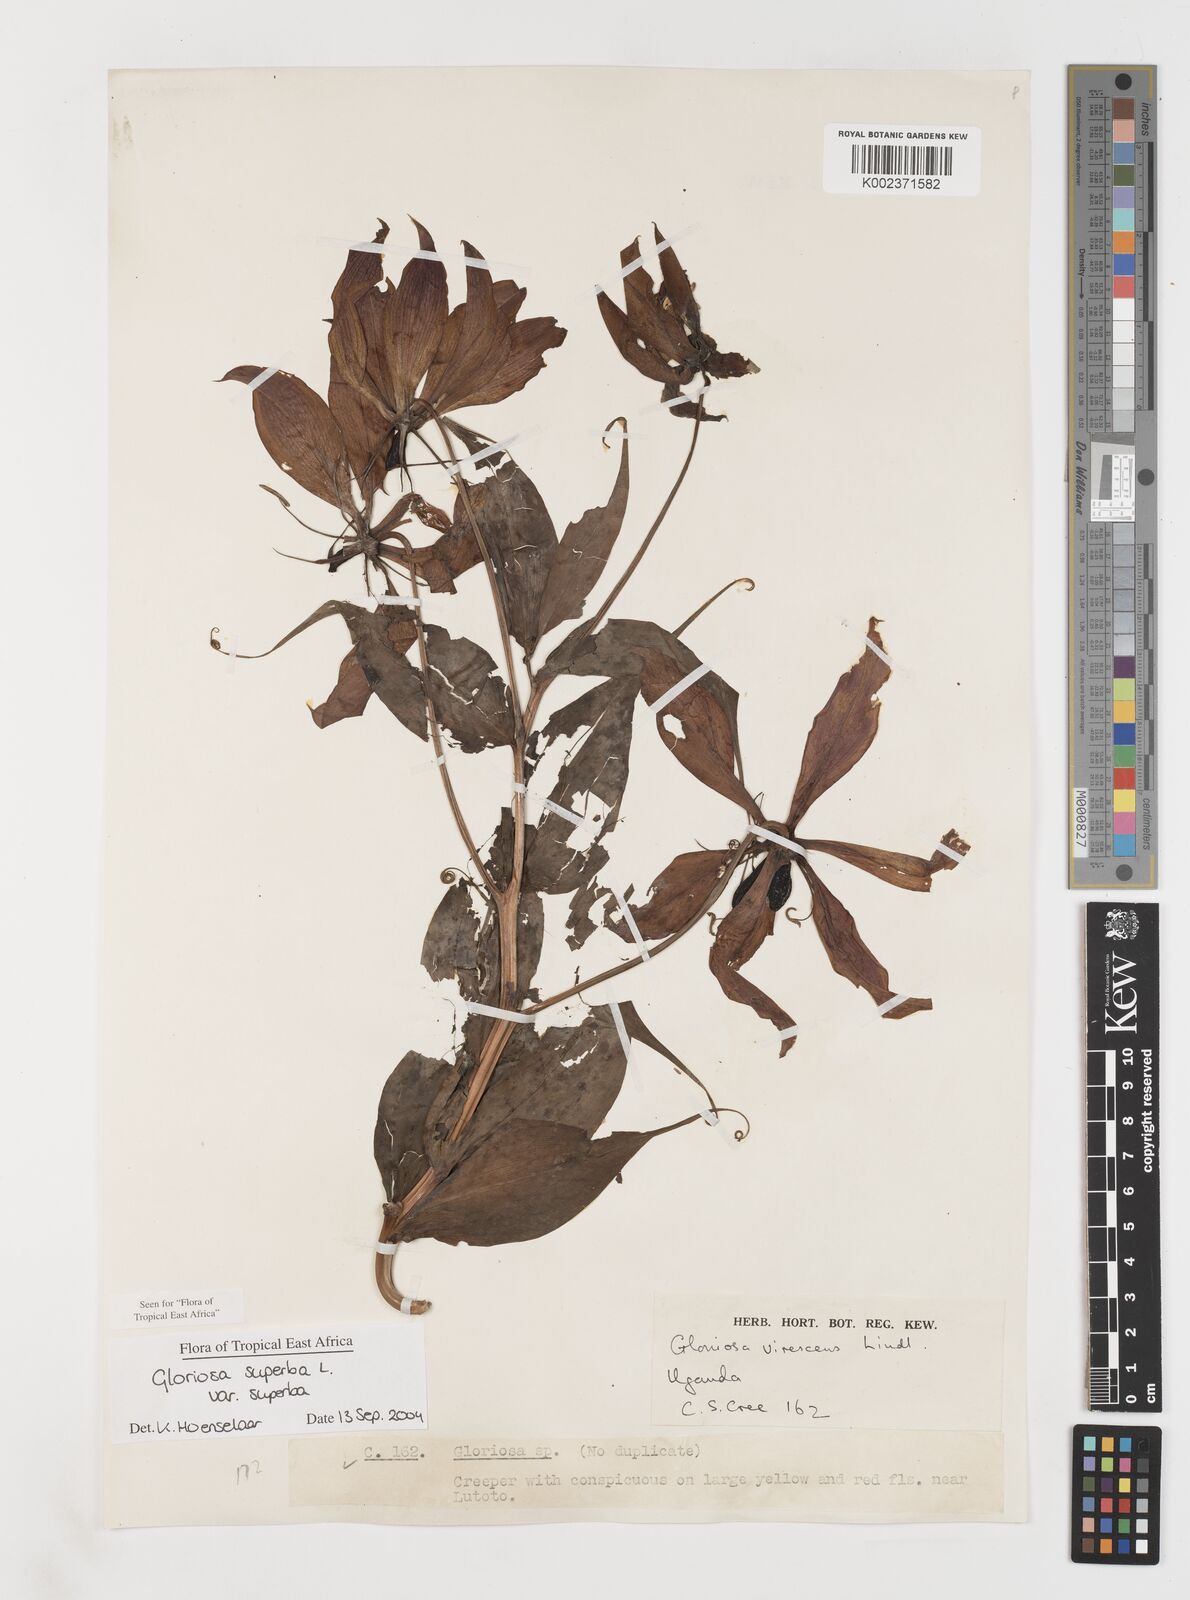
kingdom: Plantae
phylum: Tracheophyta
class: Liliopsida
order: Liliales
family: Colchicaceae
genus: Gloriosa
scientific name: Gloriosa simplex
